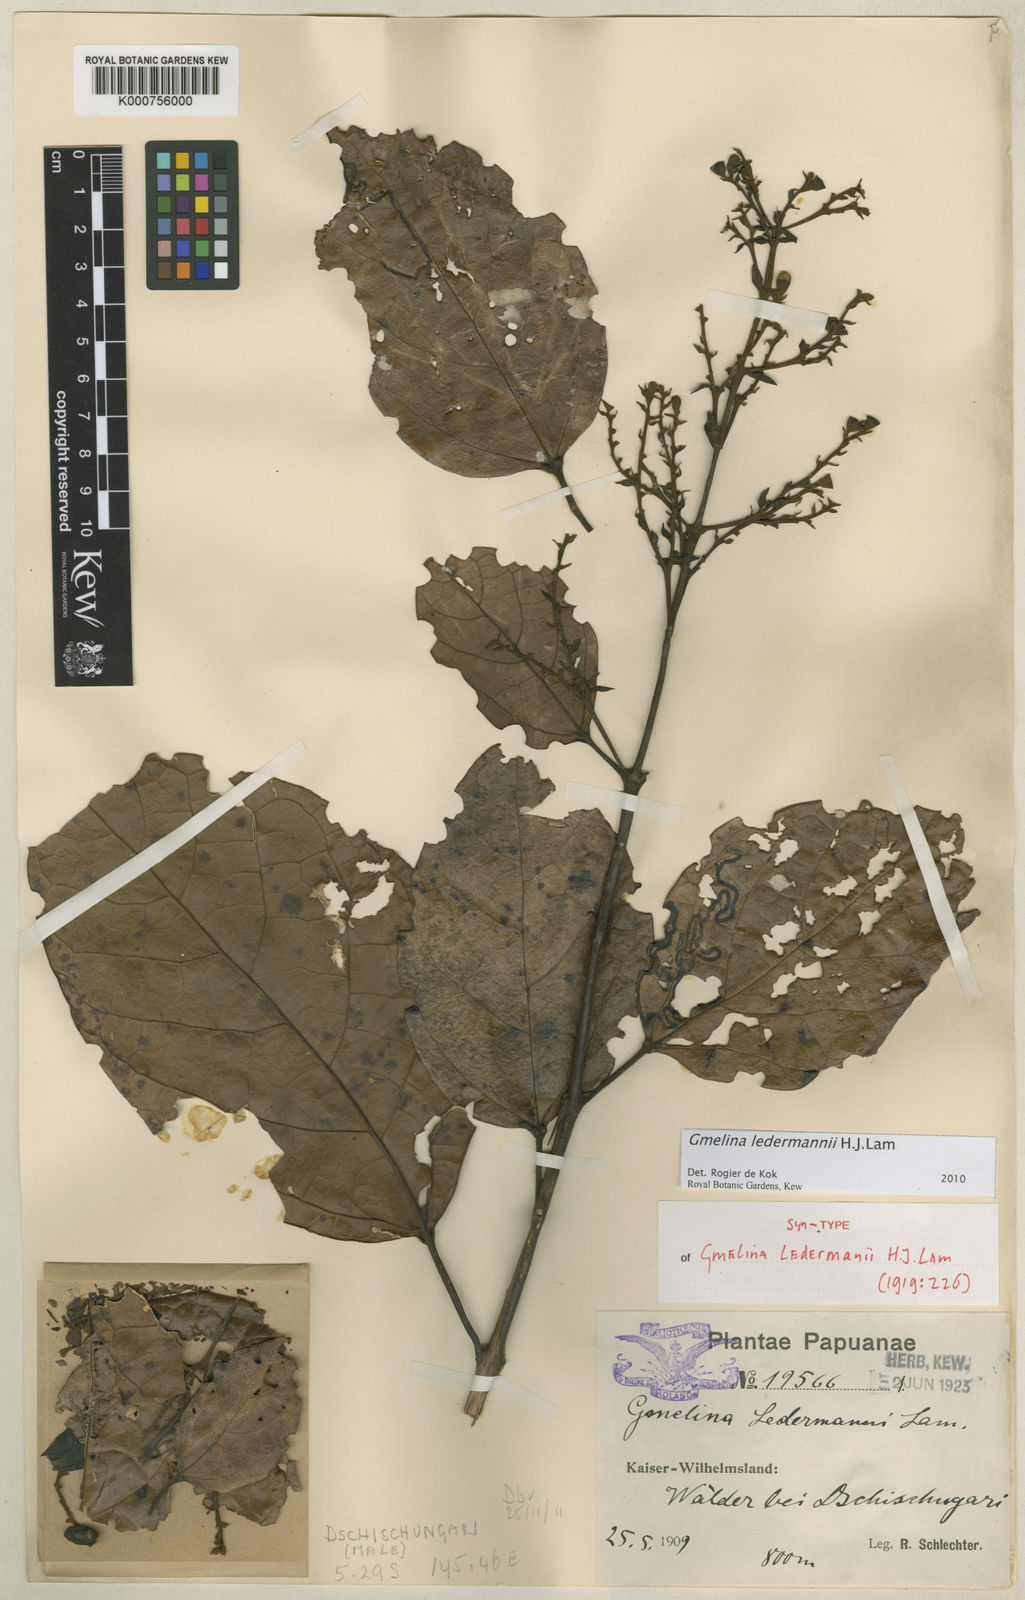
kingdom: Plantae
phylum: Tracheophyta
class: Magnoliopsida
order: Lamiales
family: Lamiaceae
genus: Gmelina
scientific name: Gmelina ledermannii
